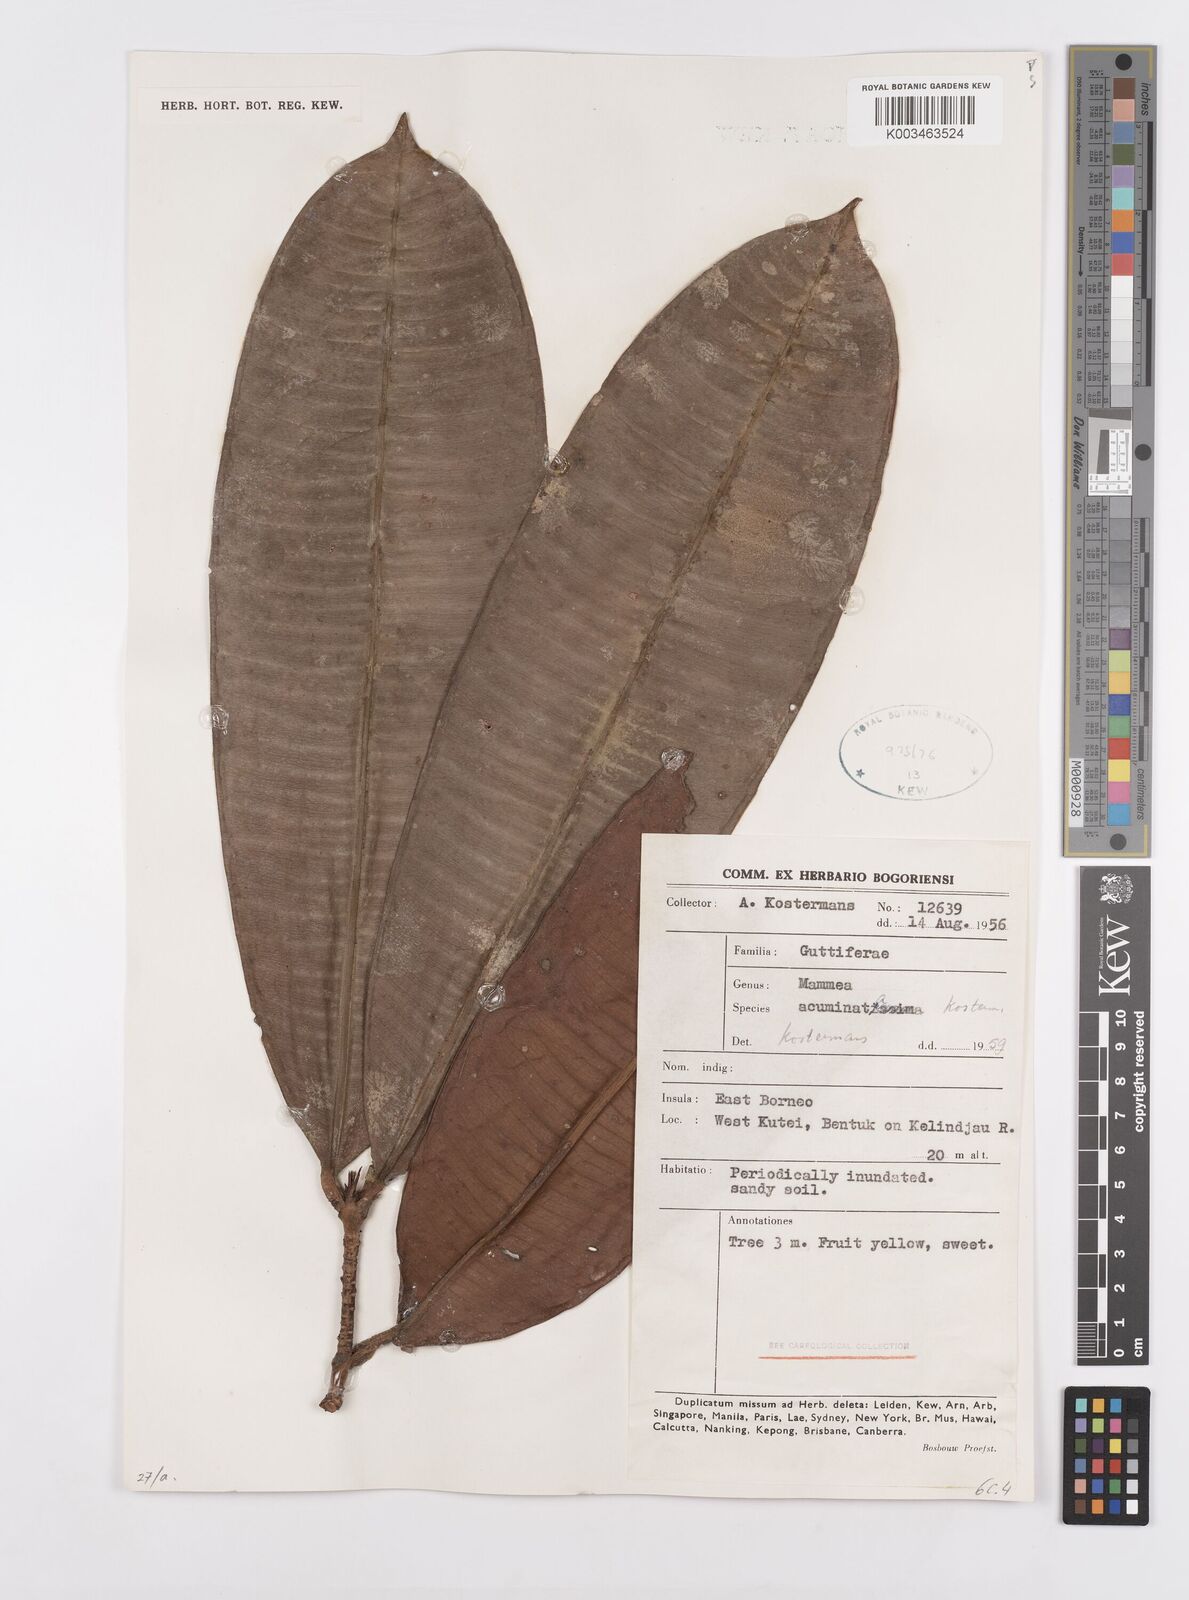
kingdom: Plantae
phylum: Tracheophyta
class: Magnoliopsida
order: Malpighiales
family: Calophyllaceae
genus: Mammea
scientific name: Mammea acuminata
